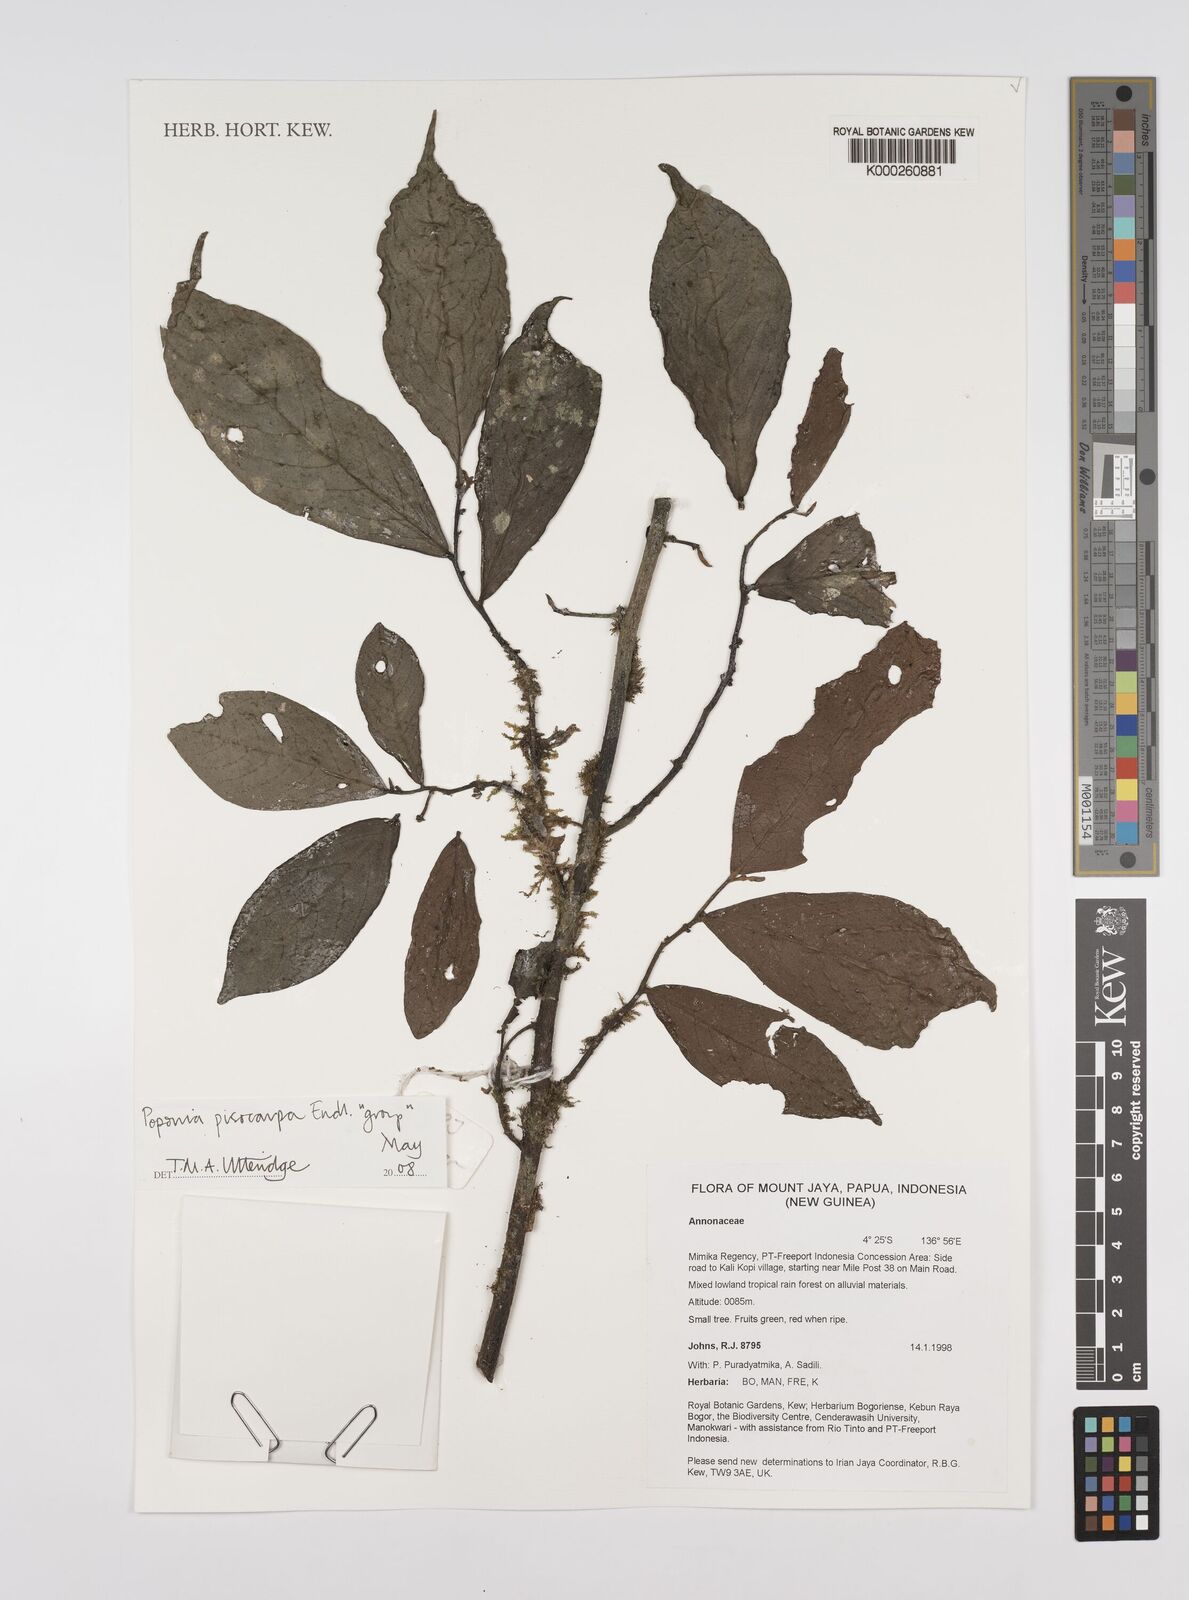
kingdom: Plantae
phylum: Tracheophyta
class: Magnoliopsida
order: Magnoliales
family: Annonaceae
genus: Popowia
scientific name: Popowia
